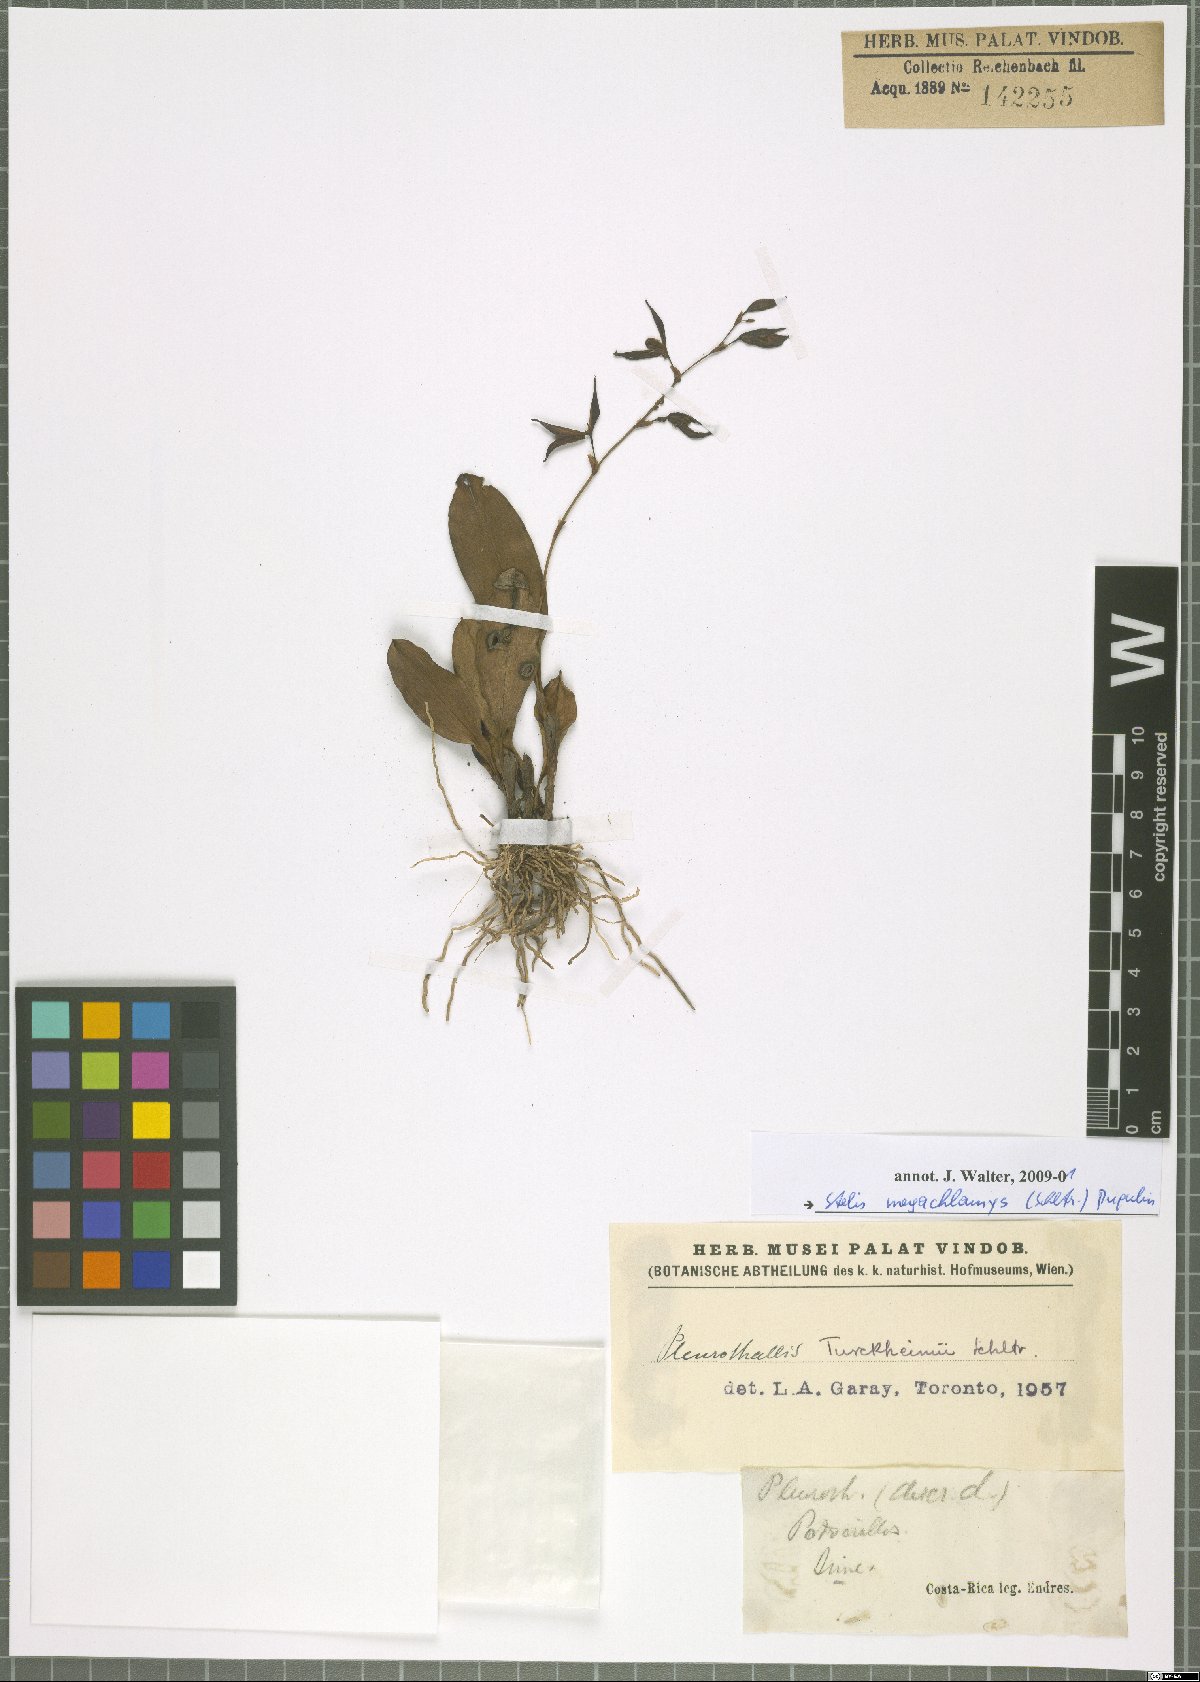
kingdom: Plantae
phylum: Tracheophyta
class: Liliopsida
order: Asparagales
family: Orchidaceae
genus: Stelis
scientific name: Stelis
